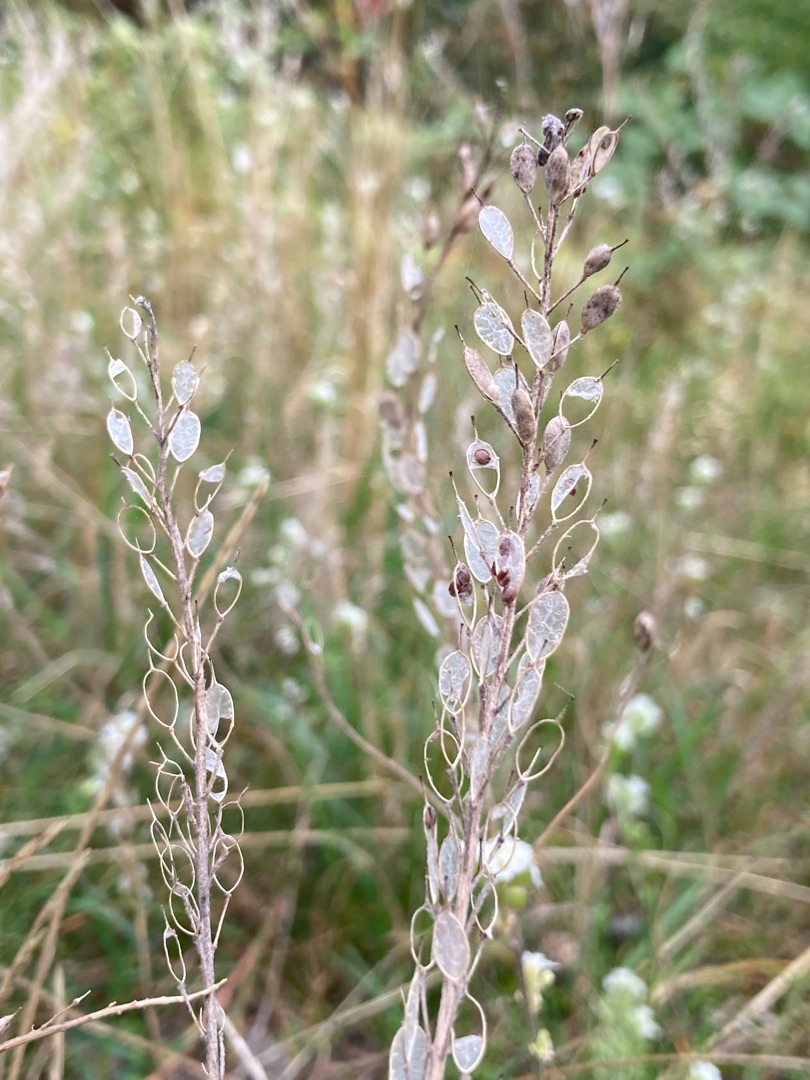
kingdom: Plantae
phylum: Tracheophyta
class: Magnoliopsida
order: Brassicales
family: Brassicaceae
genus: Berteroa
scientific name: Berteroa incana
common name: Kløvplade
